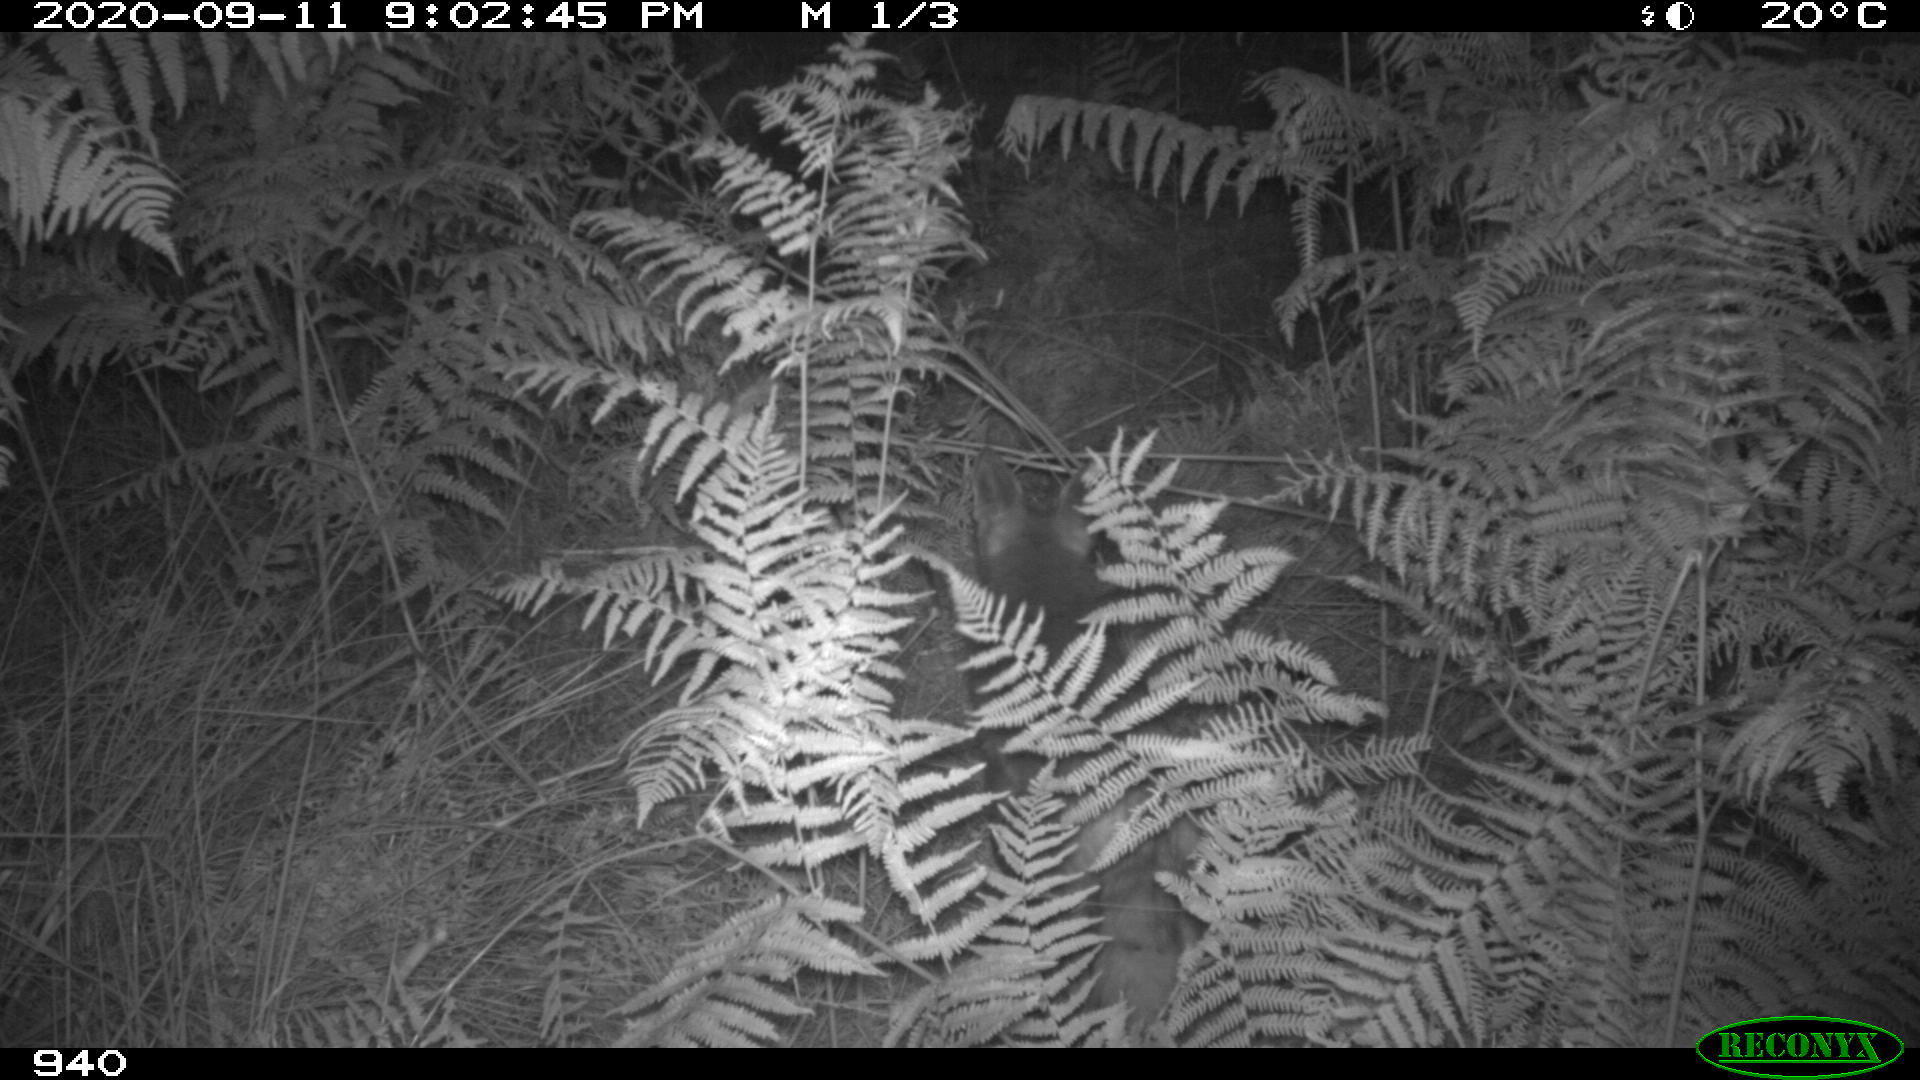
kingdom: Animalia
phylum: Chordata
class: Mammalia
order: Carnivora
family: Canidae
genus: Vulpes
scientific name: Vulpes vulpes
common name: Red fox
